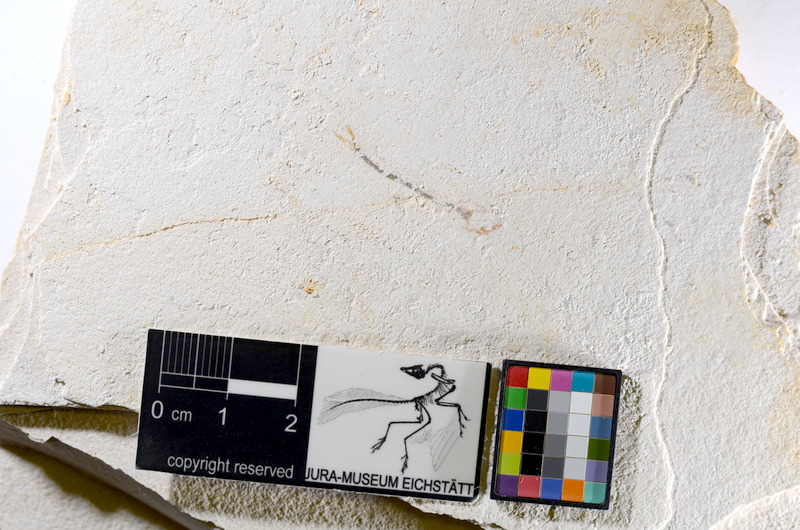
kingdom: Animalia
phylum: Chordata
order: Salmoniformes
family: Orthogonikleithridae
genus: Orthogonikleithrus
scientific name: Orthogonikleithrus hoelli
